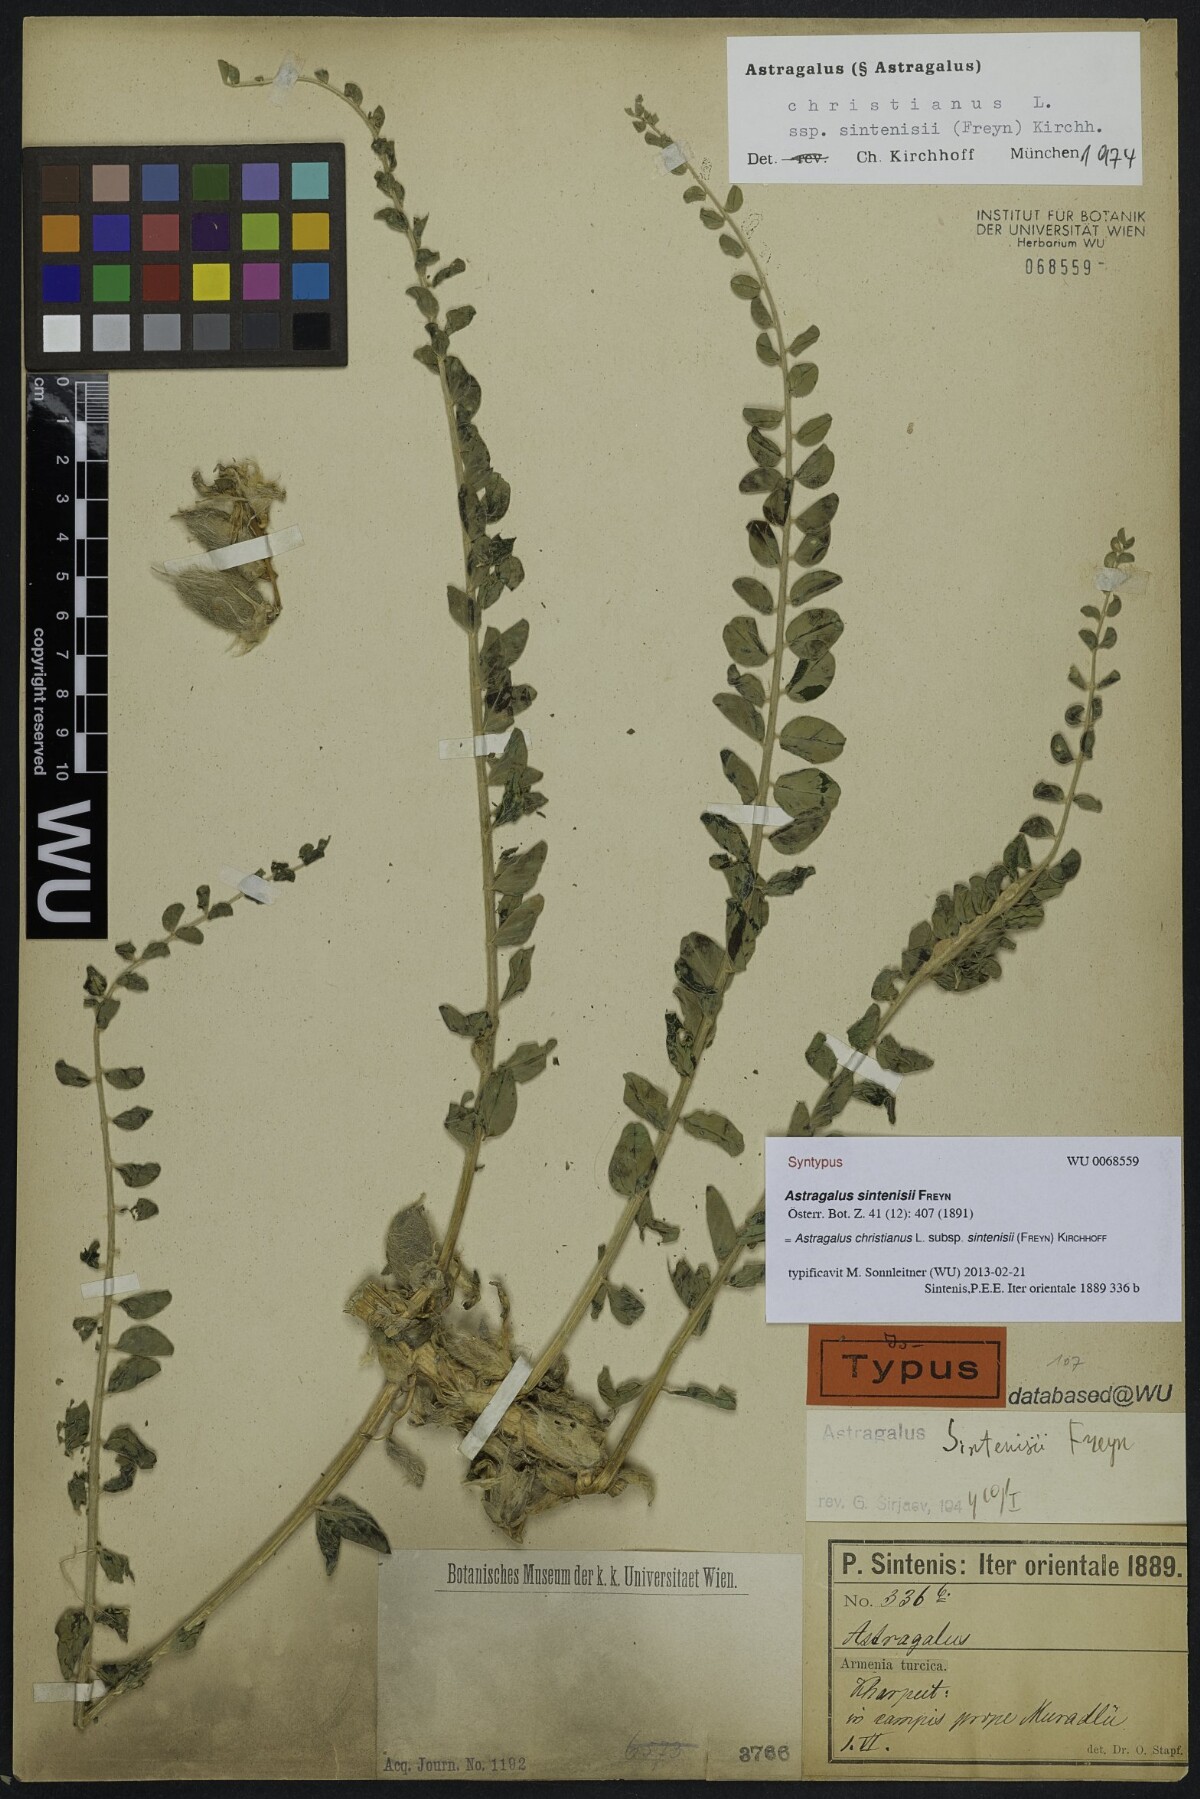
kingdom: Plantae
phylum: Tracheophyta
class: Magnoliopsida
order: Fabales
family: Fabaceae
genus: Astragalus
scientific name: Astragalus christianus
